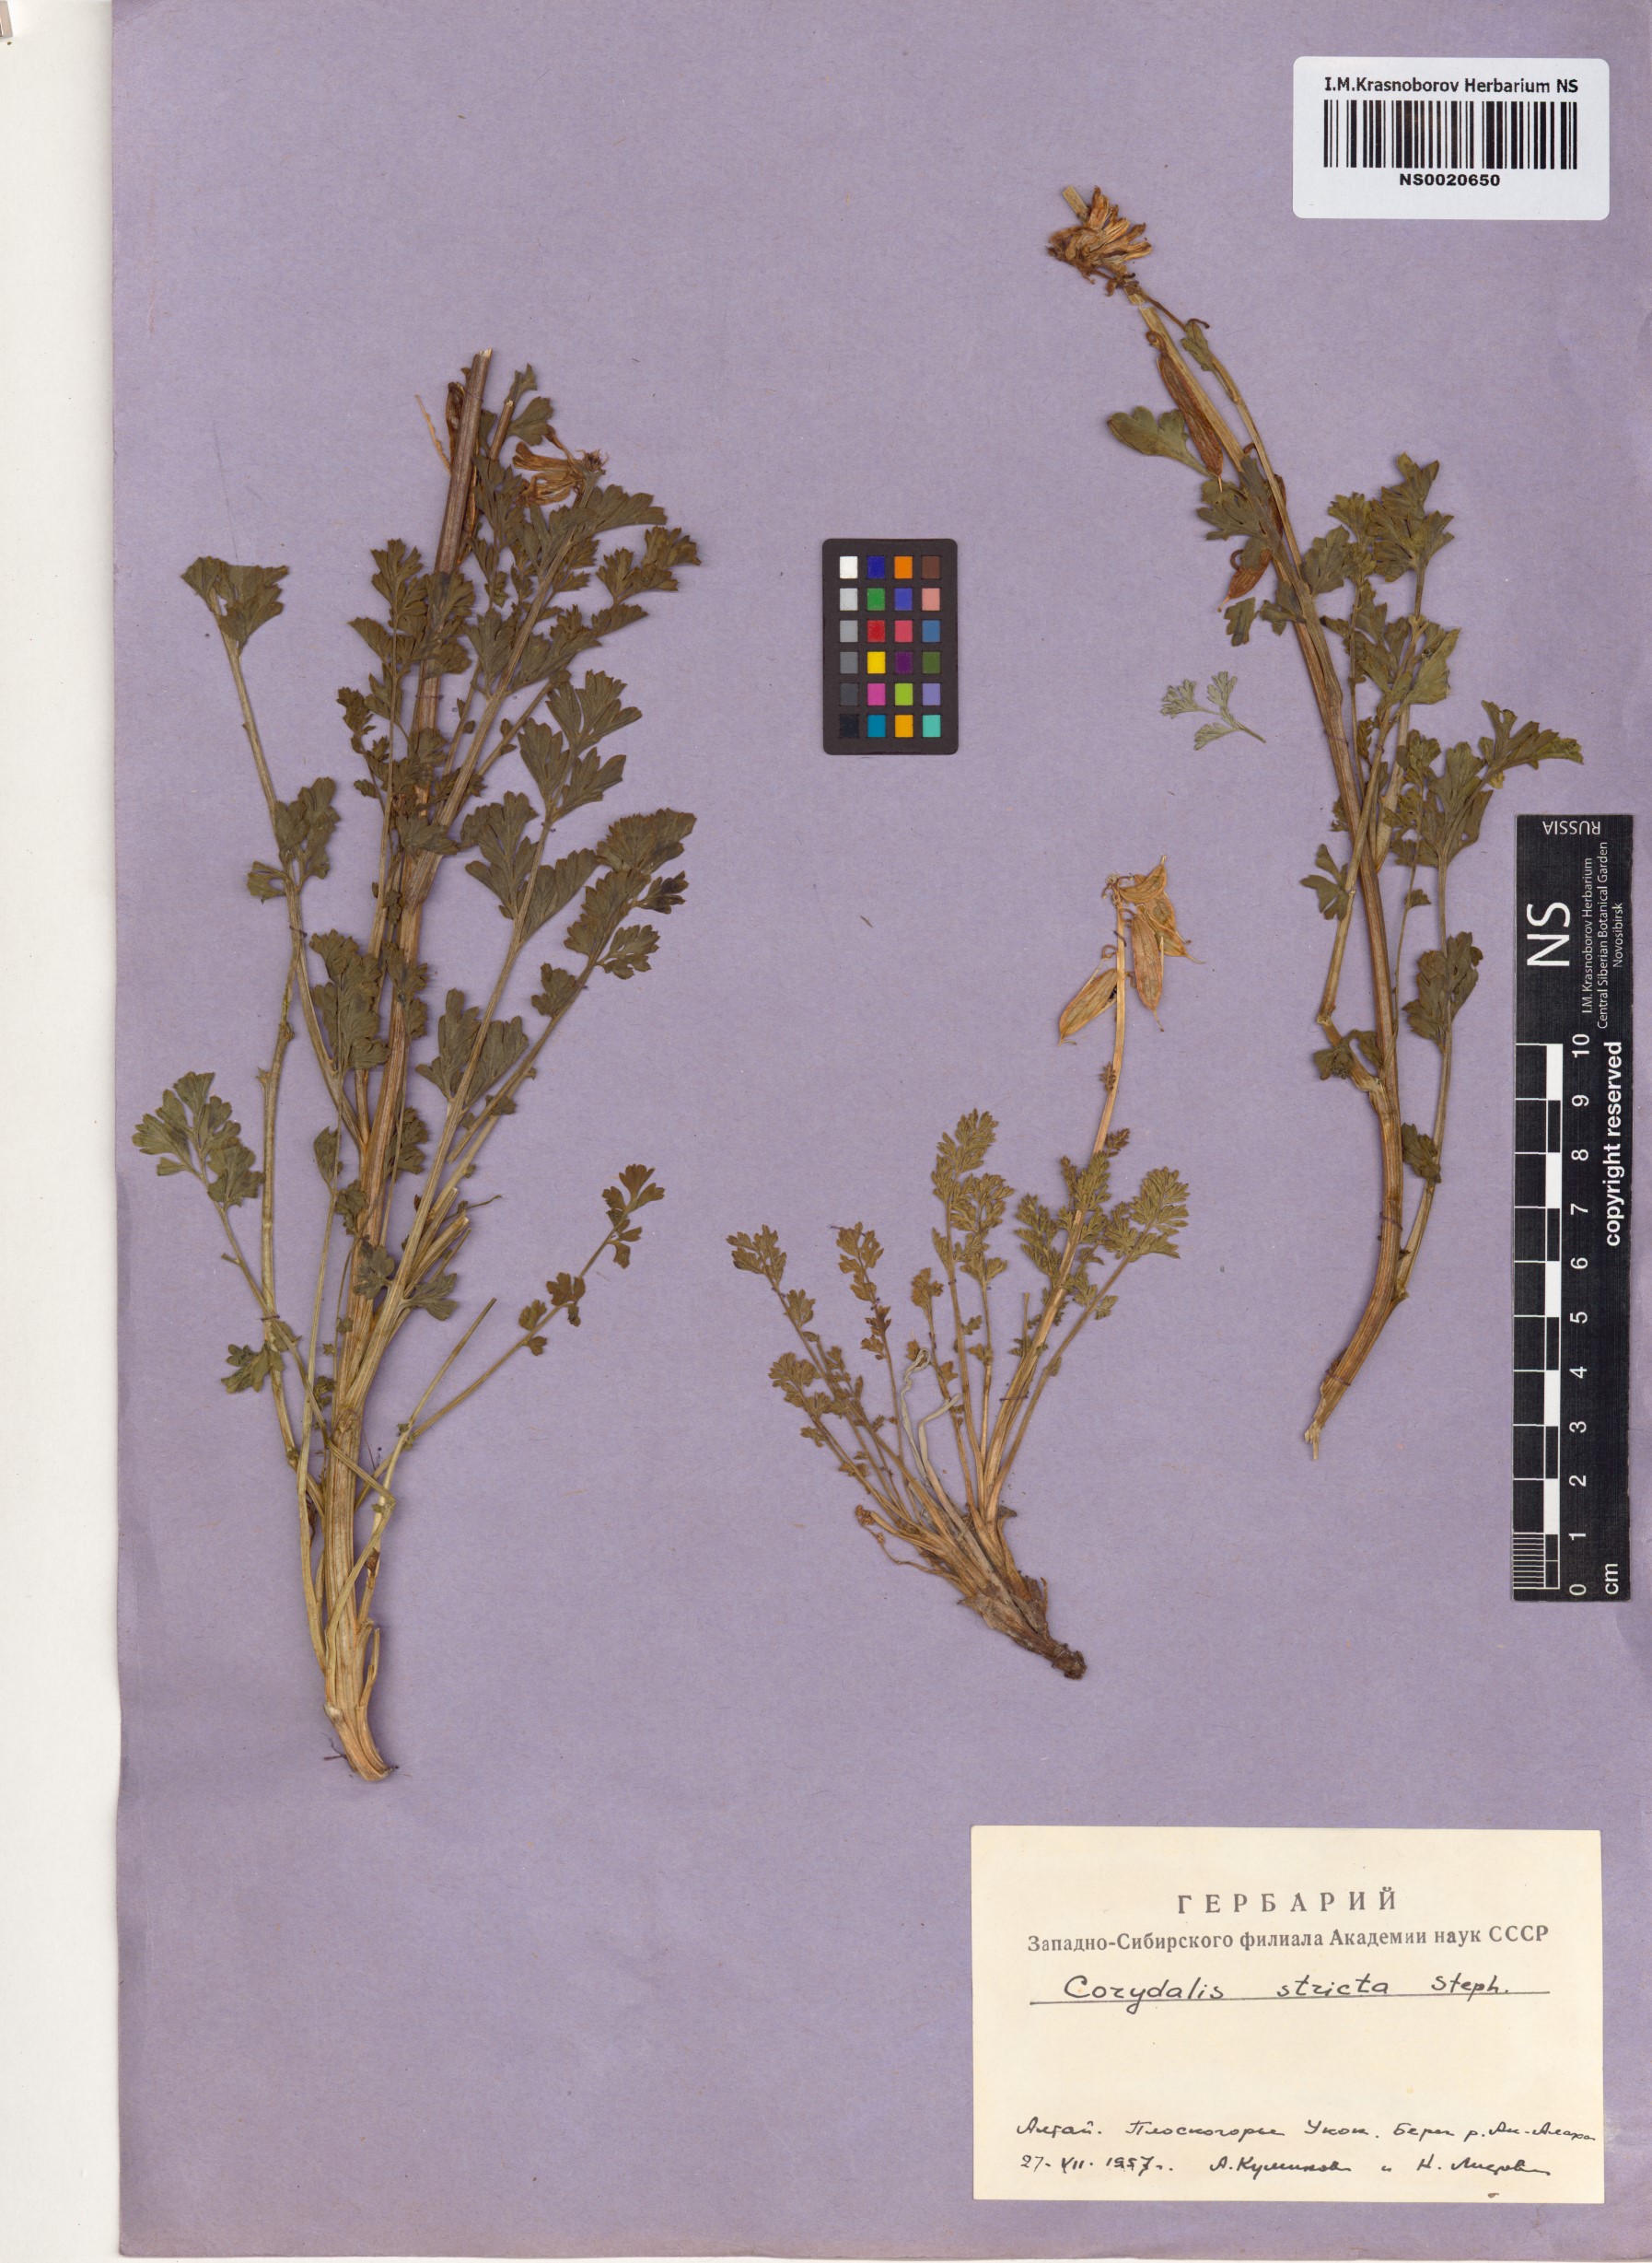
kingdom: Plantae
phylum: Tracheophyta
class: Magnoliopsida
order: Ranunculales
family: Papaveraceae
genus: Corydalis
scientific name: Corydalis stricta
